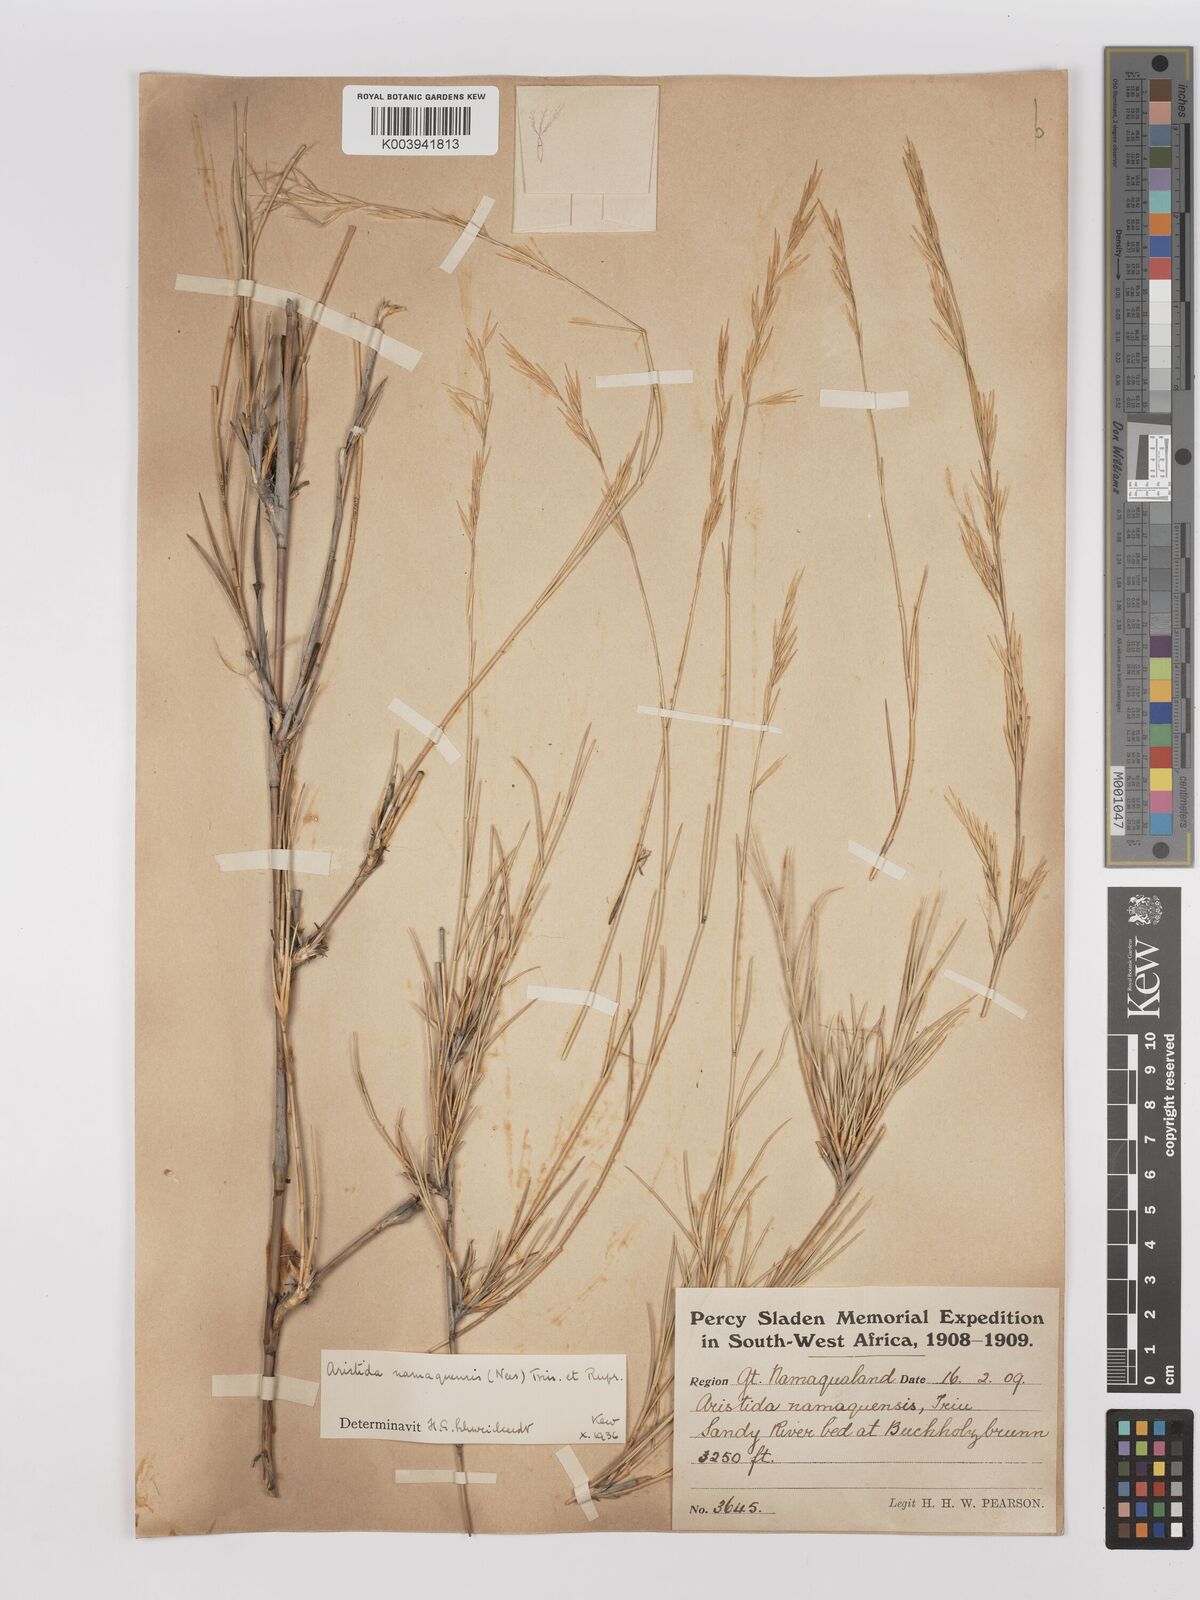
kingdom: Plantae
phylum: Tracheophyta
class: Liliopsida
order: Poales
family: Poaceae
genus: Stipagrostis
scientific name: Stipagrostis namaquensis
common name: River bushman grass
